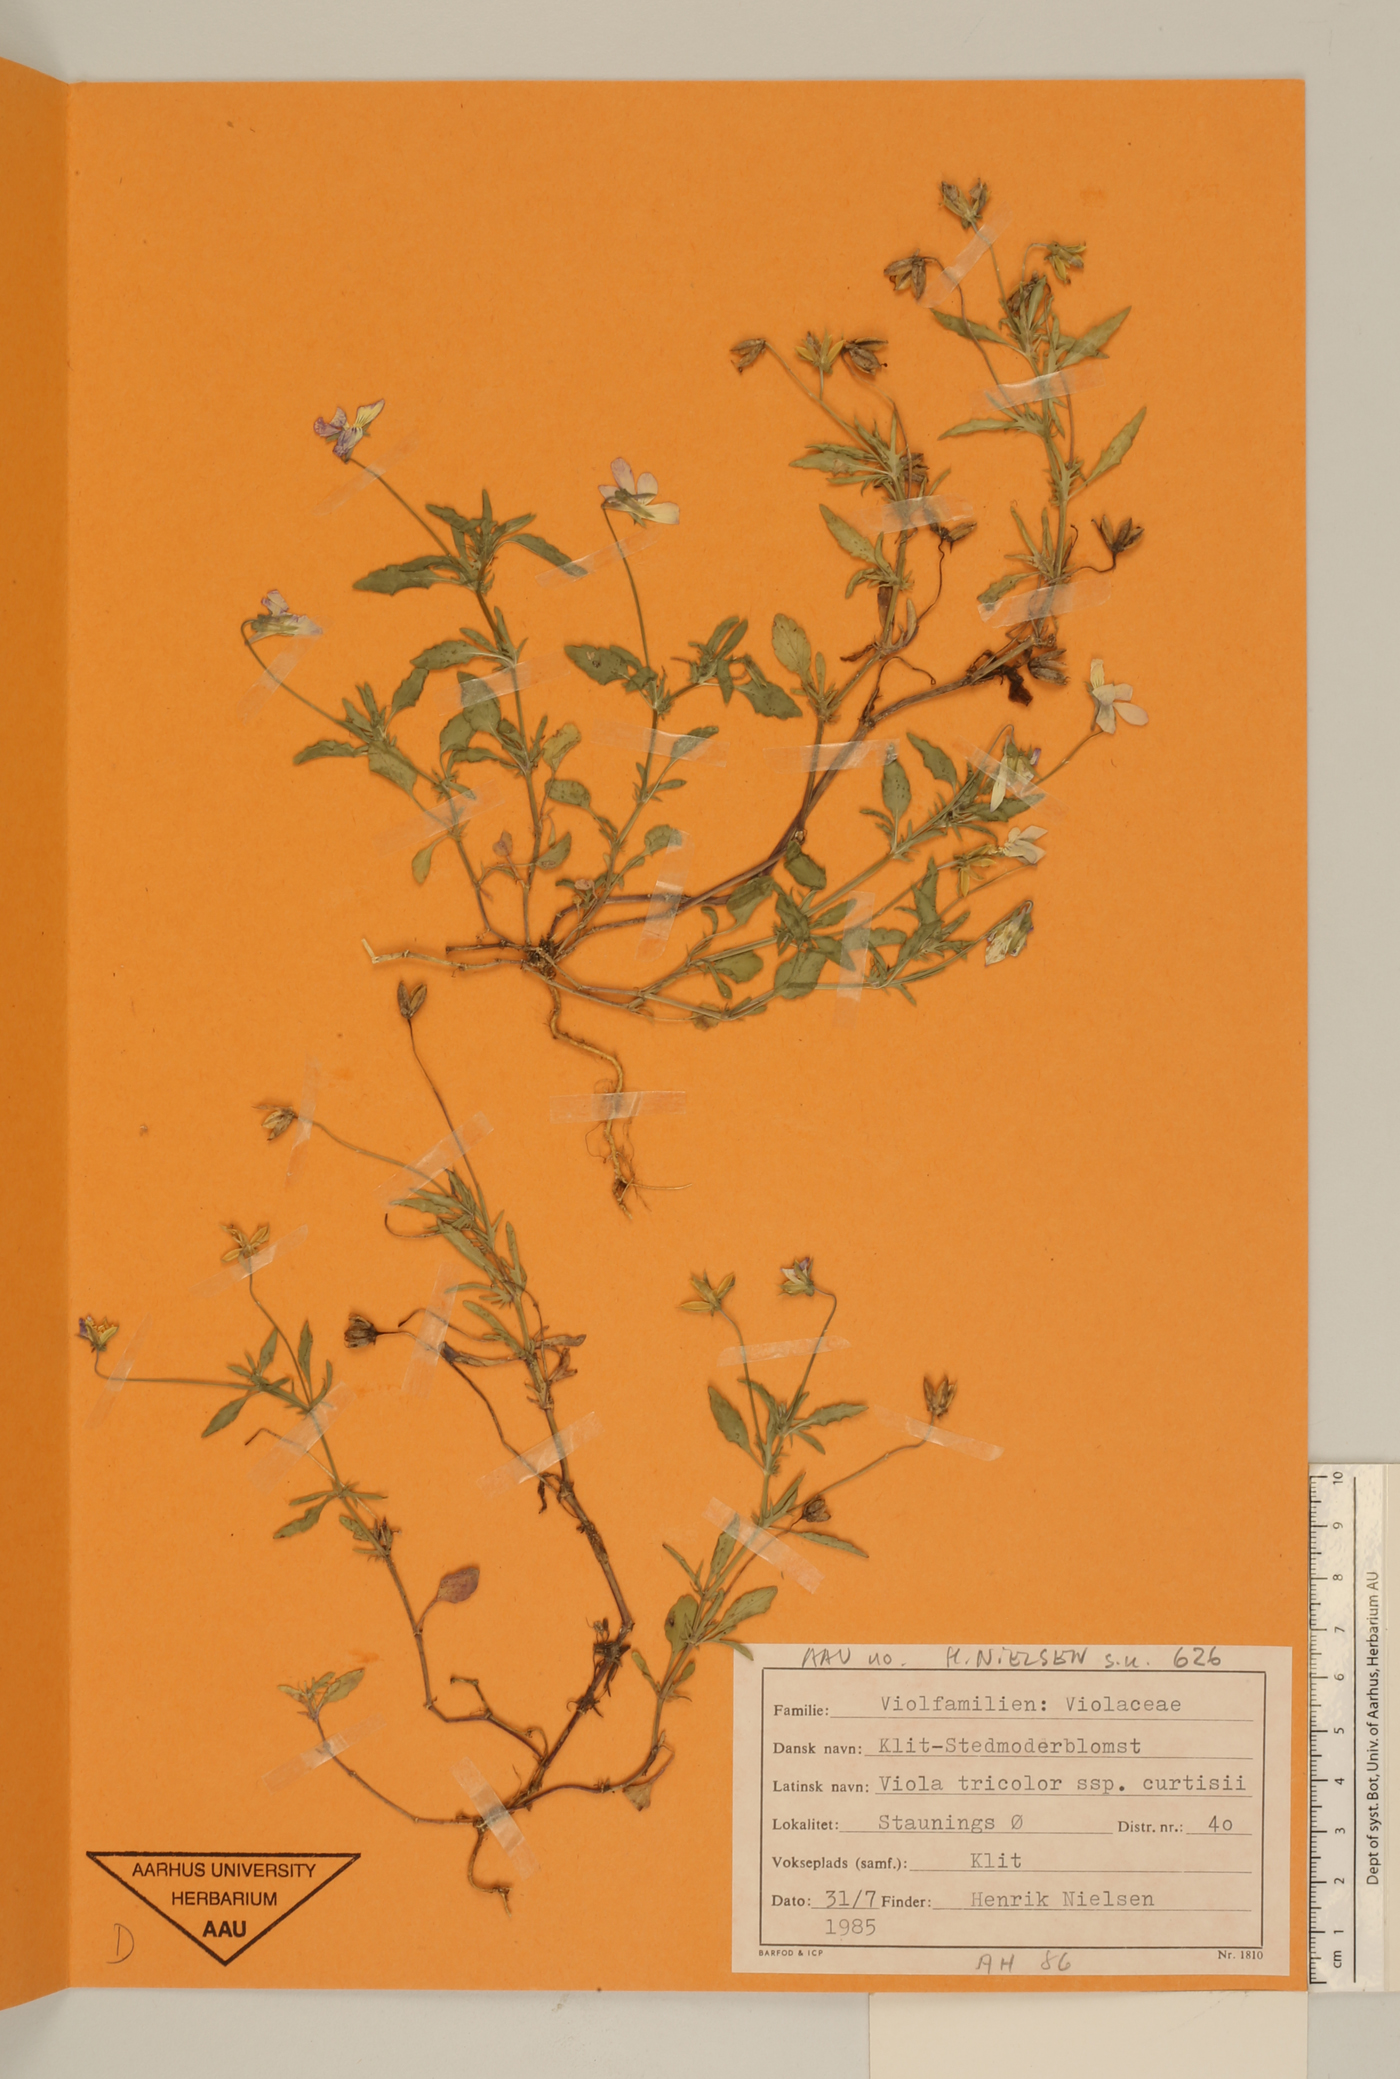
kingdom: Plantae
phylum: Tracheophyta
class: Magnoliopsida
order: Malpighiales
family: Violaceae
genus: Viola
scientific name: Viola tricolor
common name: Pansy
